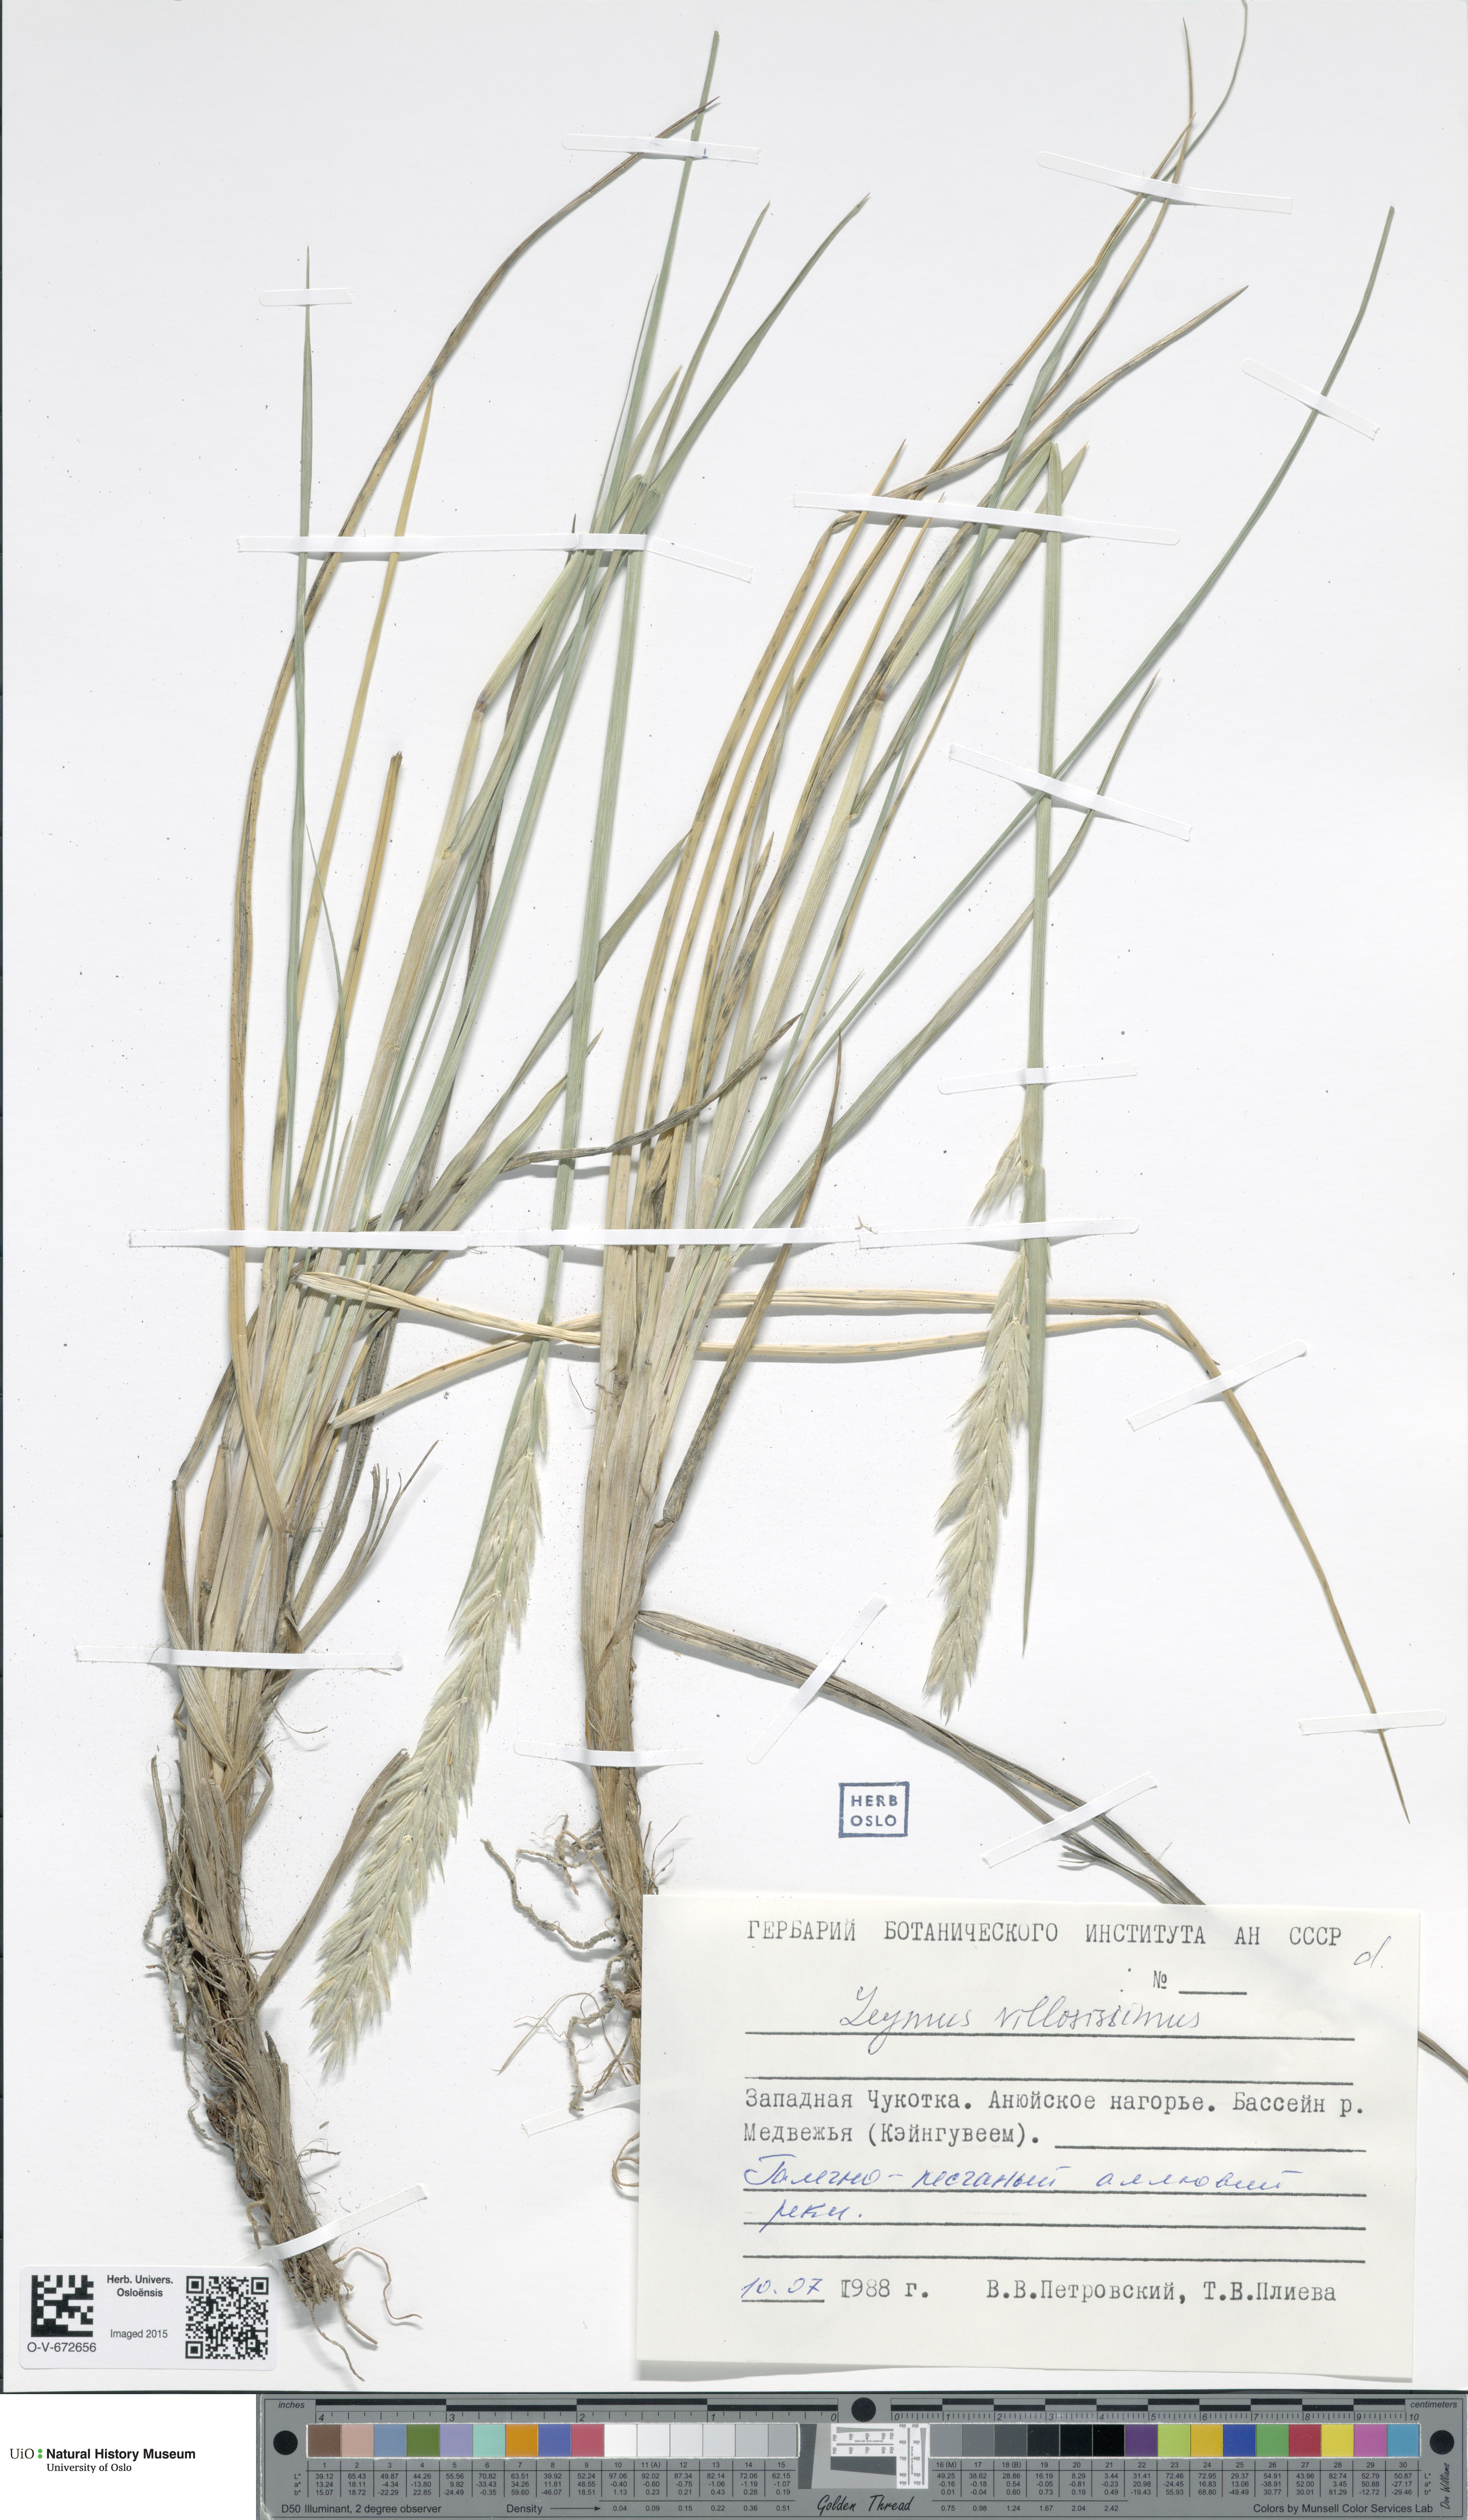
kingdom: Plantae
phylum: Tracheophyta
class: Liliopsida
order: Poales
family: Poaceae
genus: Leymus
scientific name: Leymus villosissimus
